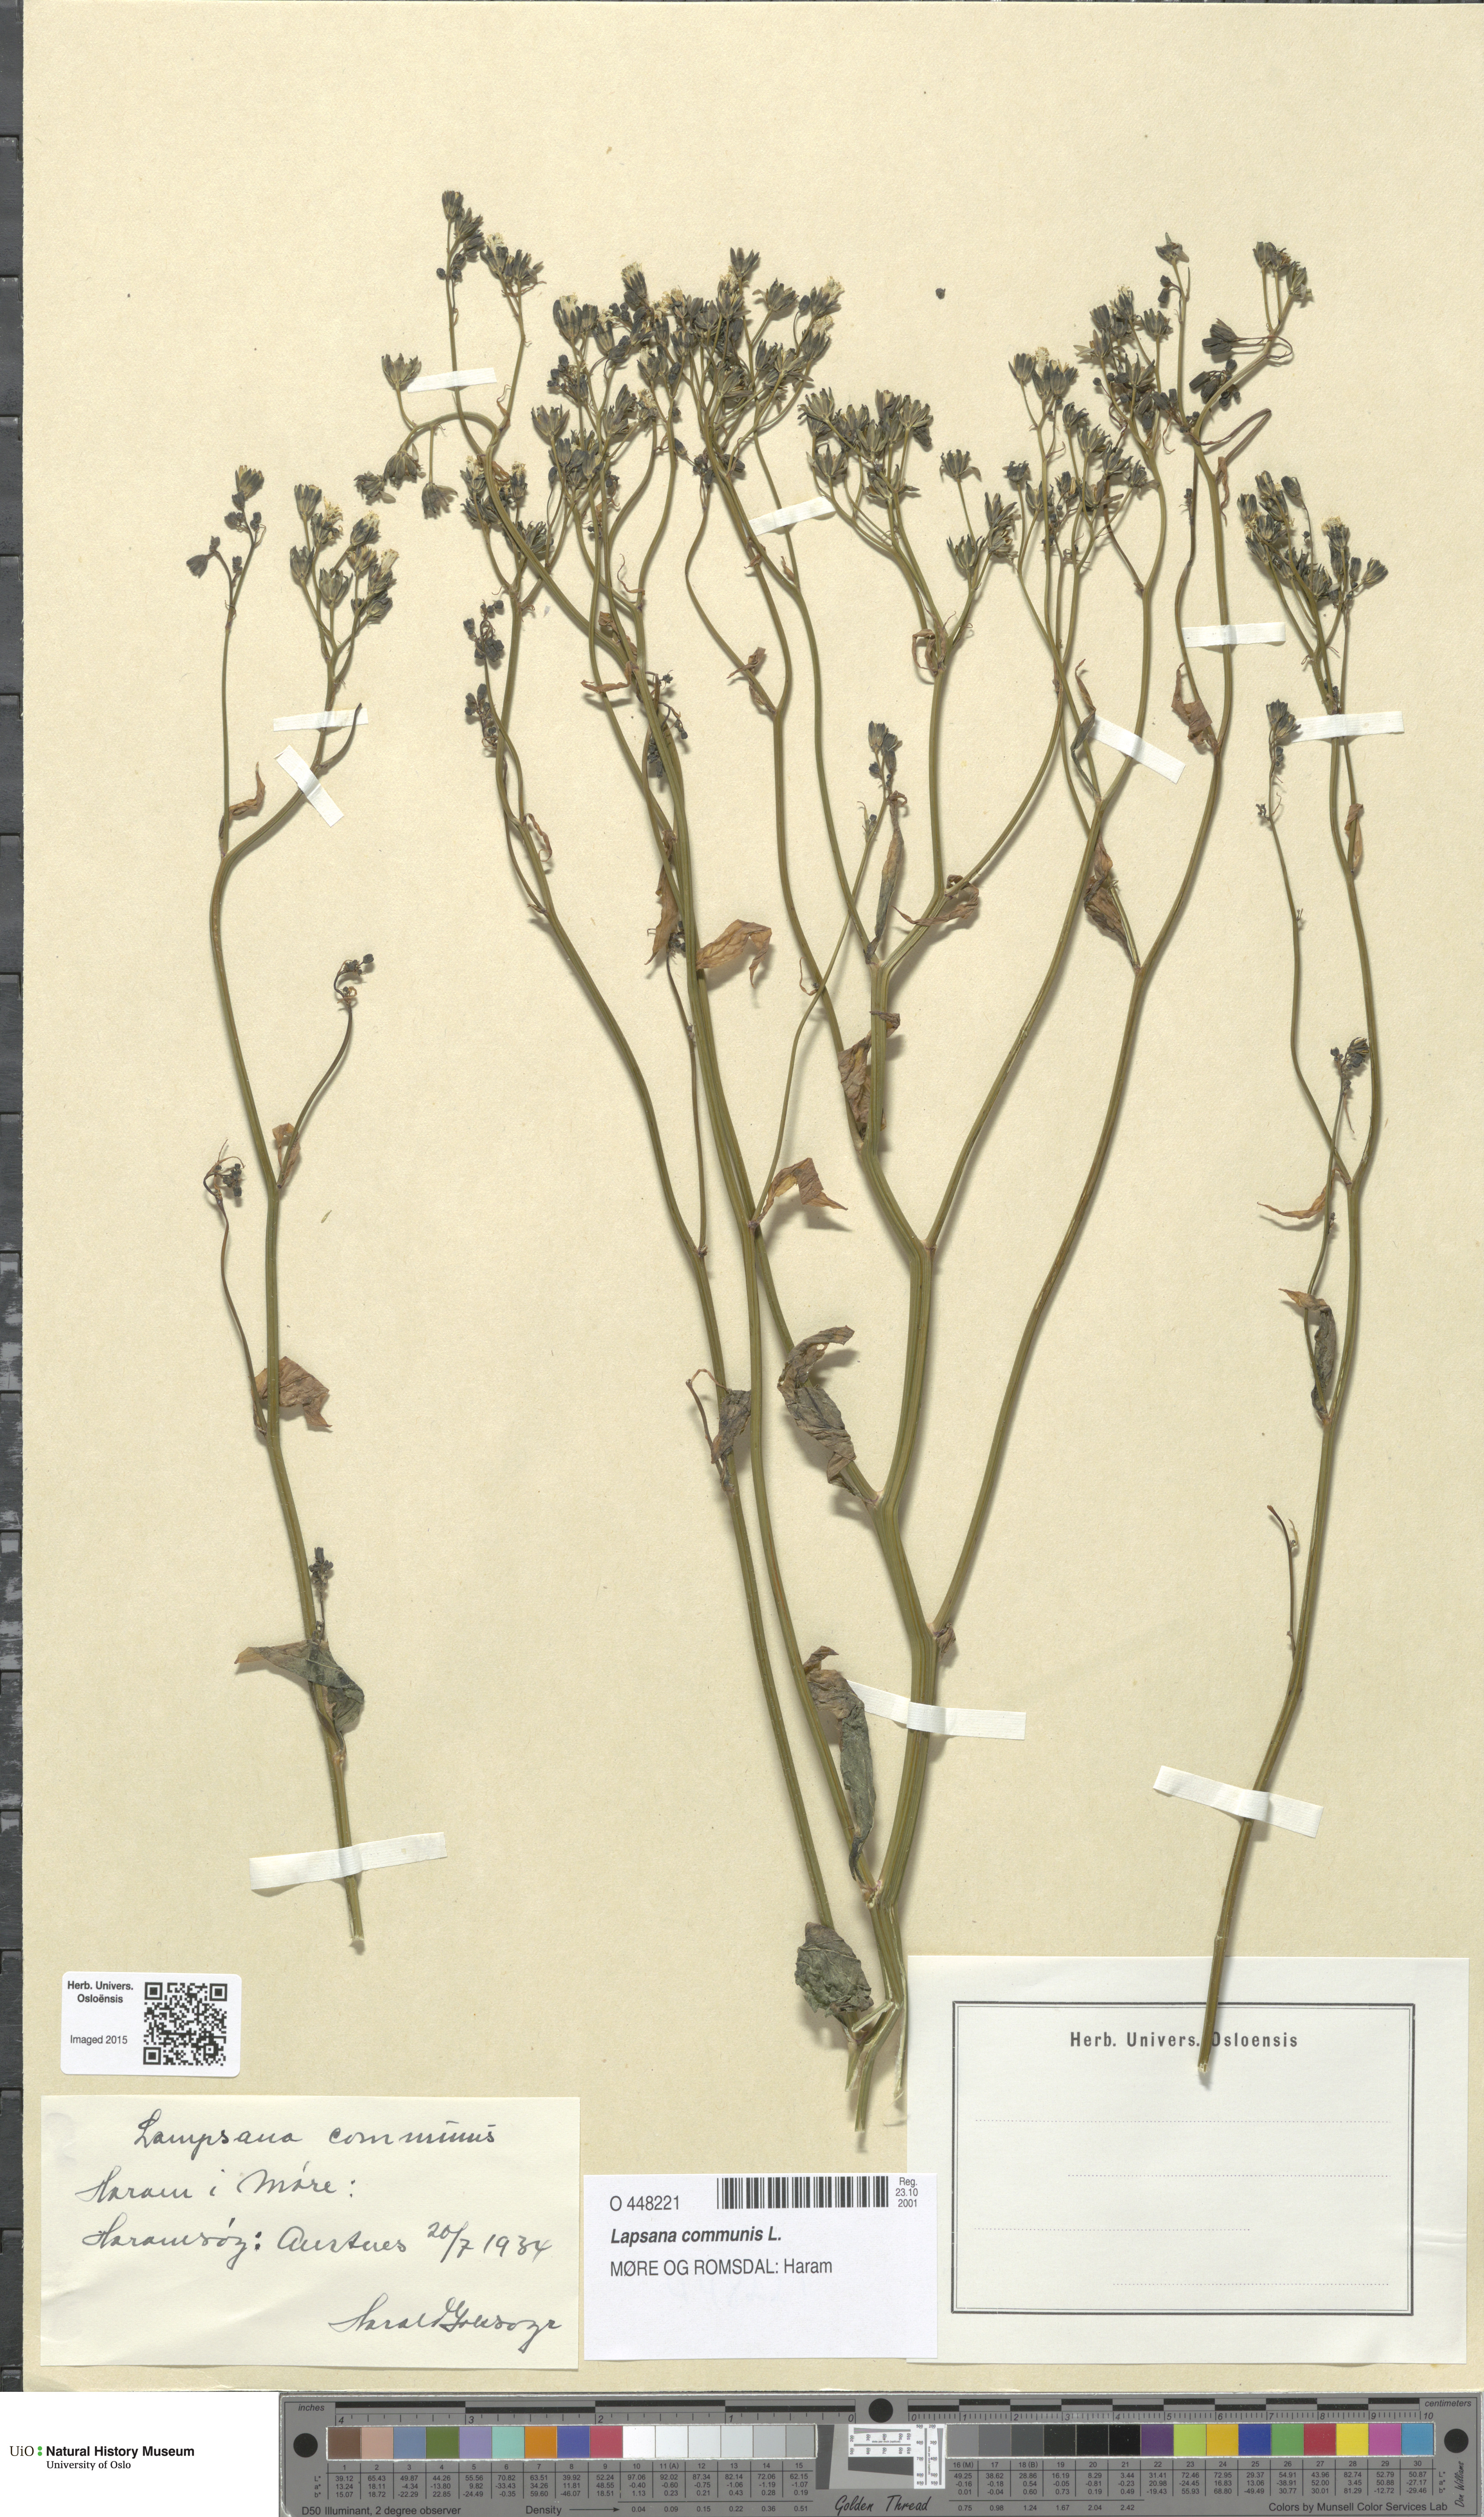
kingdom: Plantae
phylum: Tracheophyta
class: Magnoliopsida
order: Asterales
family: Asteraceae
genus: Lapsana
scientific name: Lapsana communis
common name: Nipplewort
